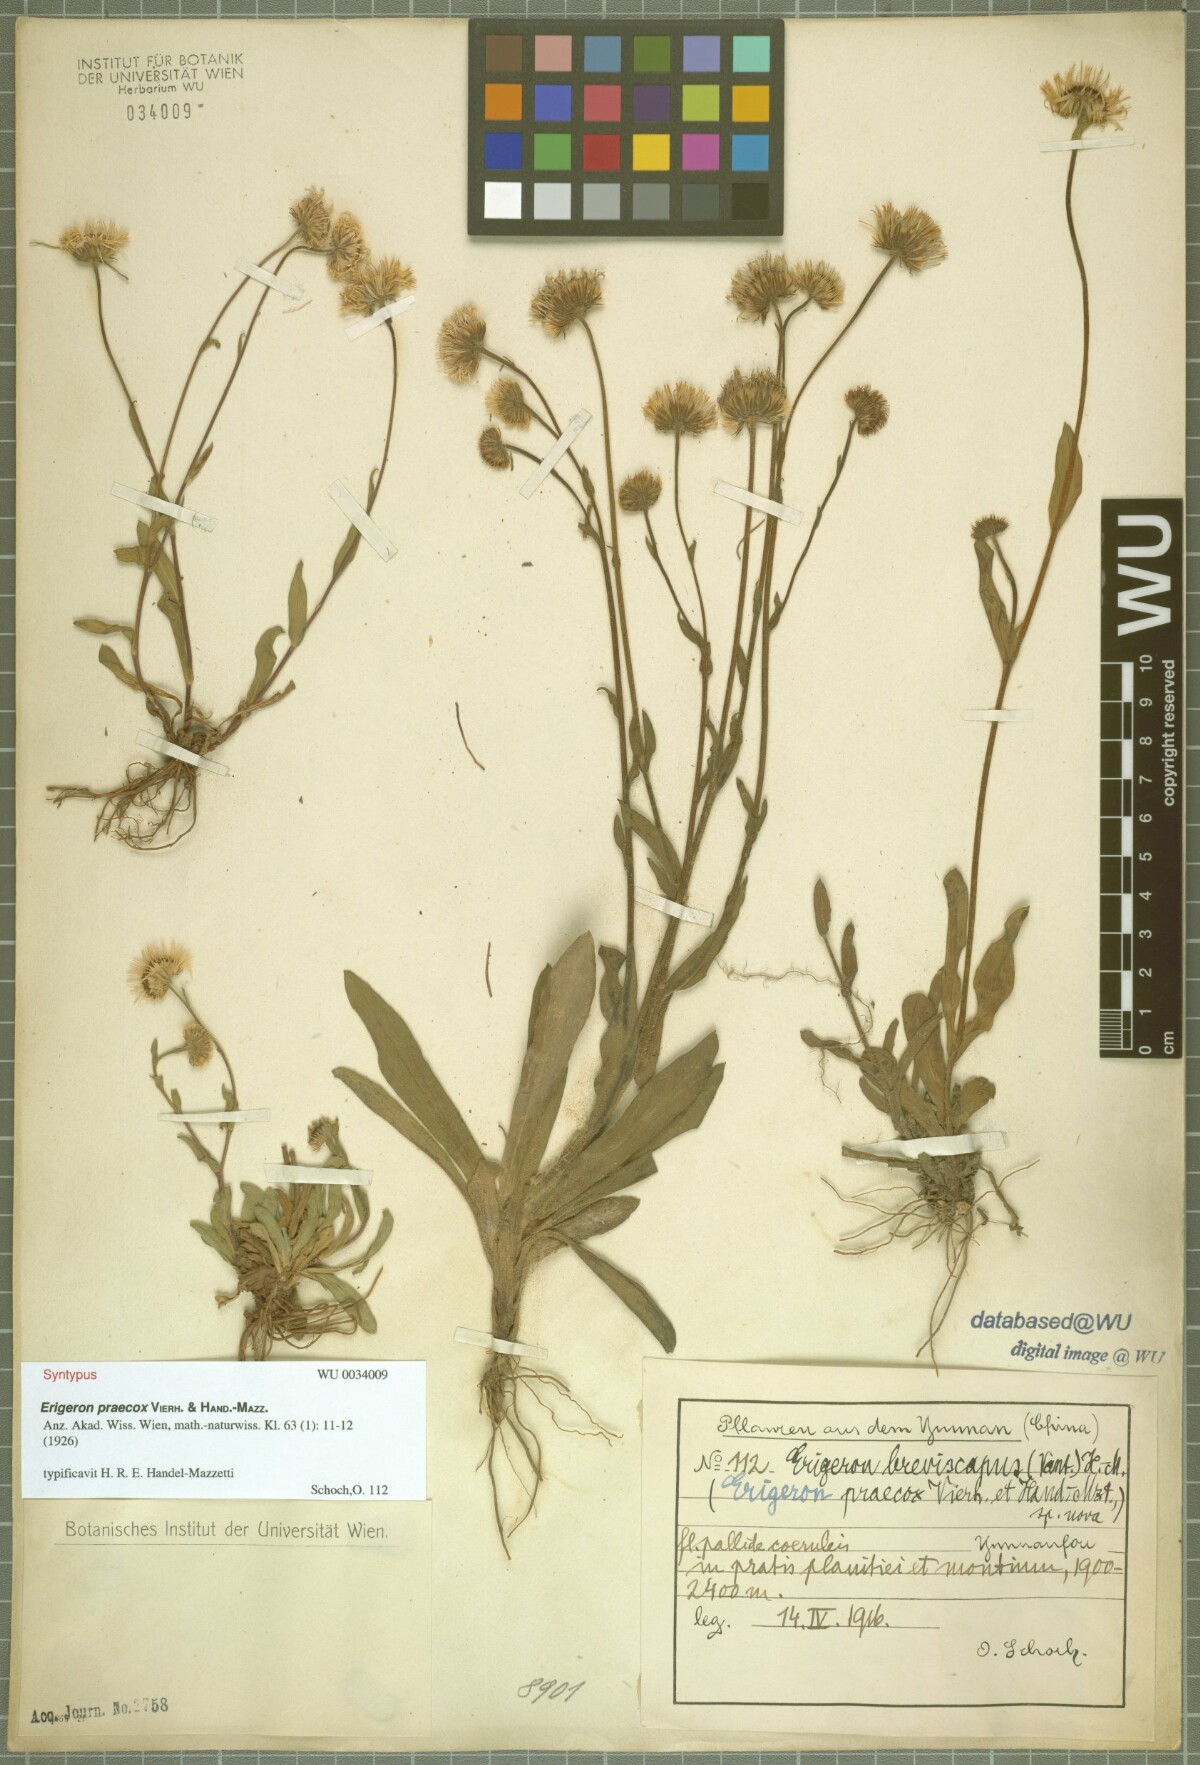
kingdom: Plantae
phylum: Tracheophyta
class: Magnoliopsida
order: Asterales
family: Asteraceae
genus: Erigeron
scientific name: Erigeron breviscapus
